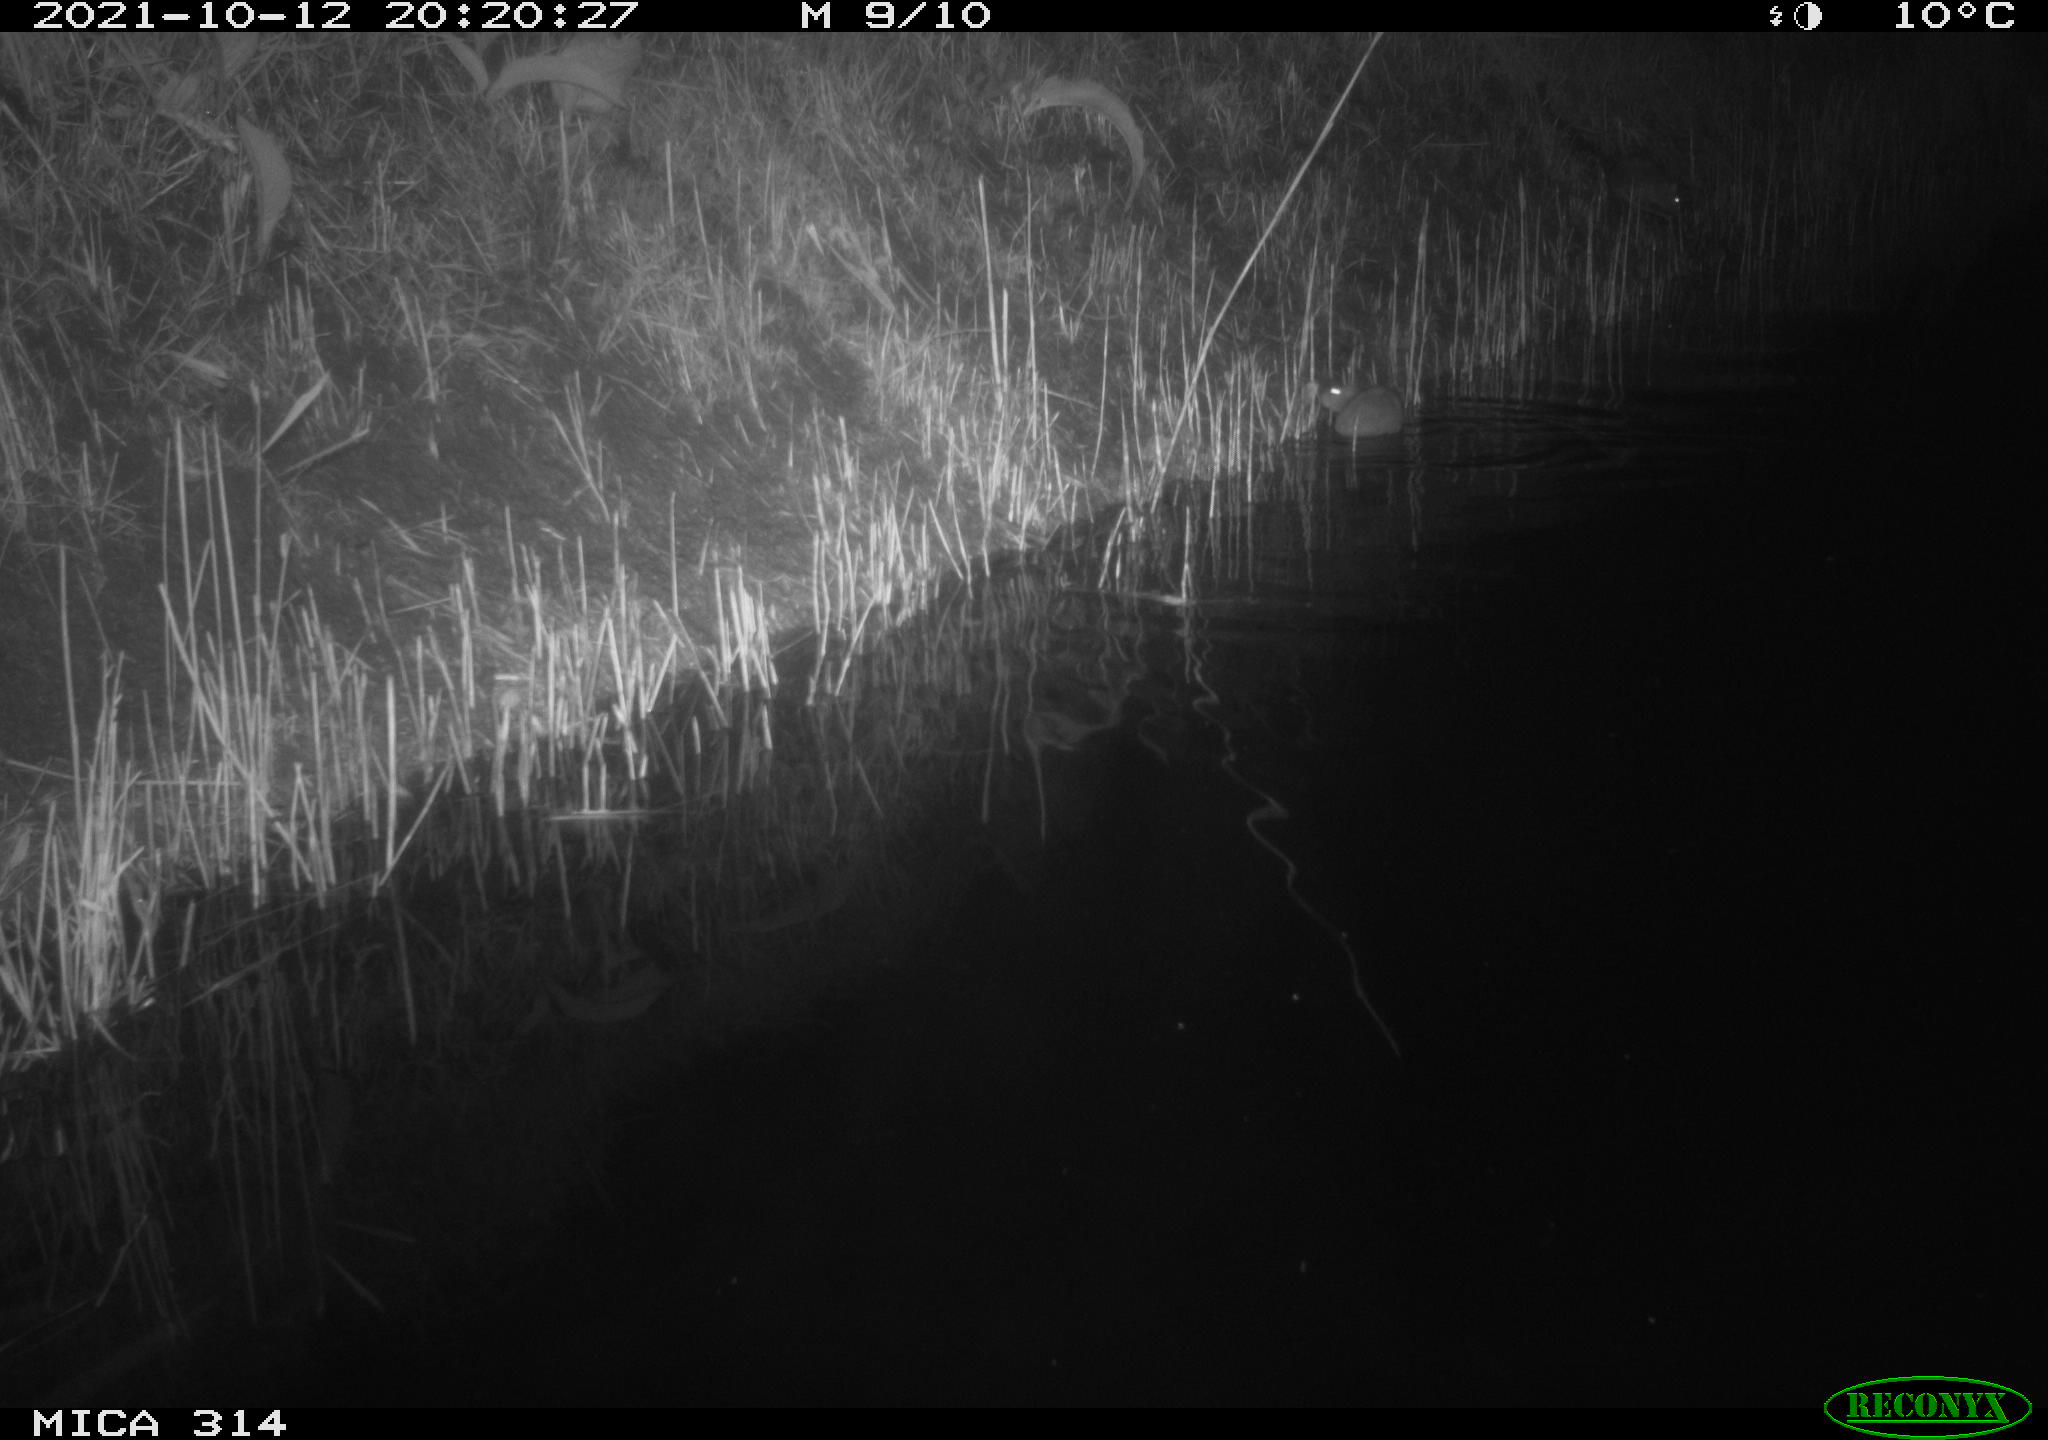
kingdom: Animalia
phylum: Chordata
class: Mammalia
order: Rodentia
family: Muridae
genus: Rattus
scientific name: Rattus norvegicus
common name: Brown rat
